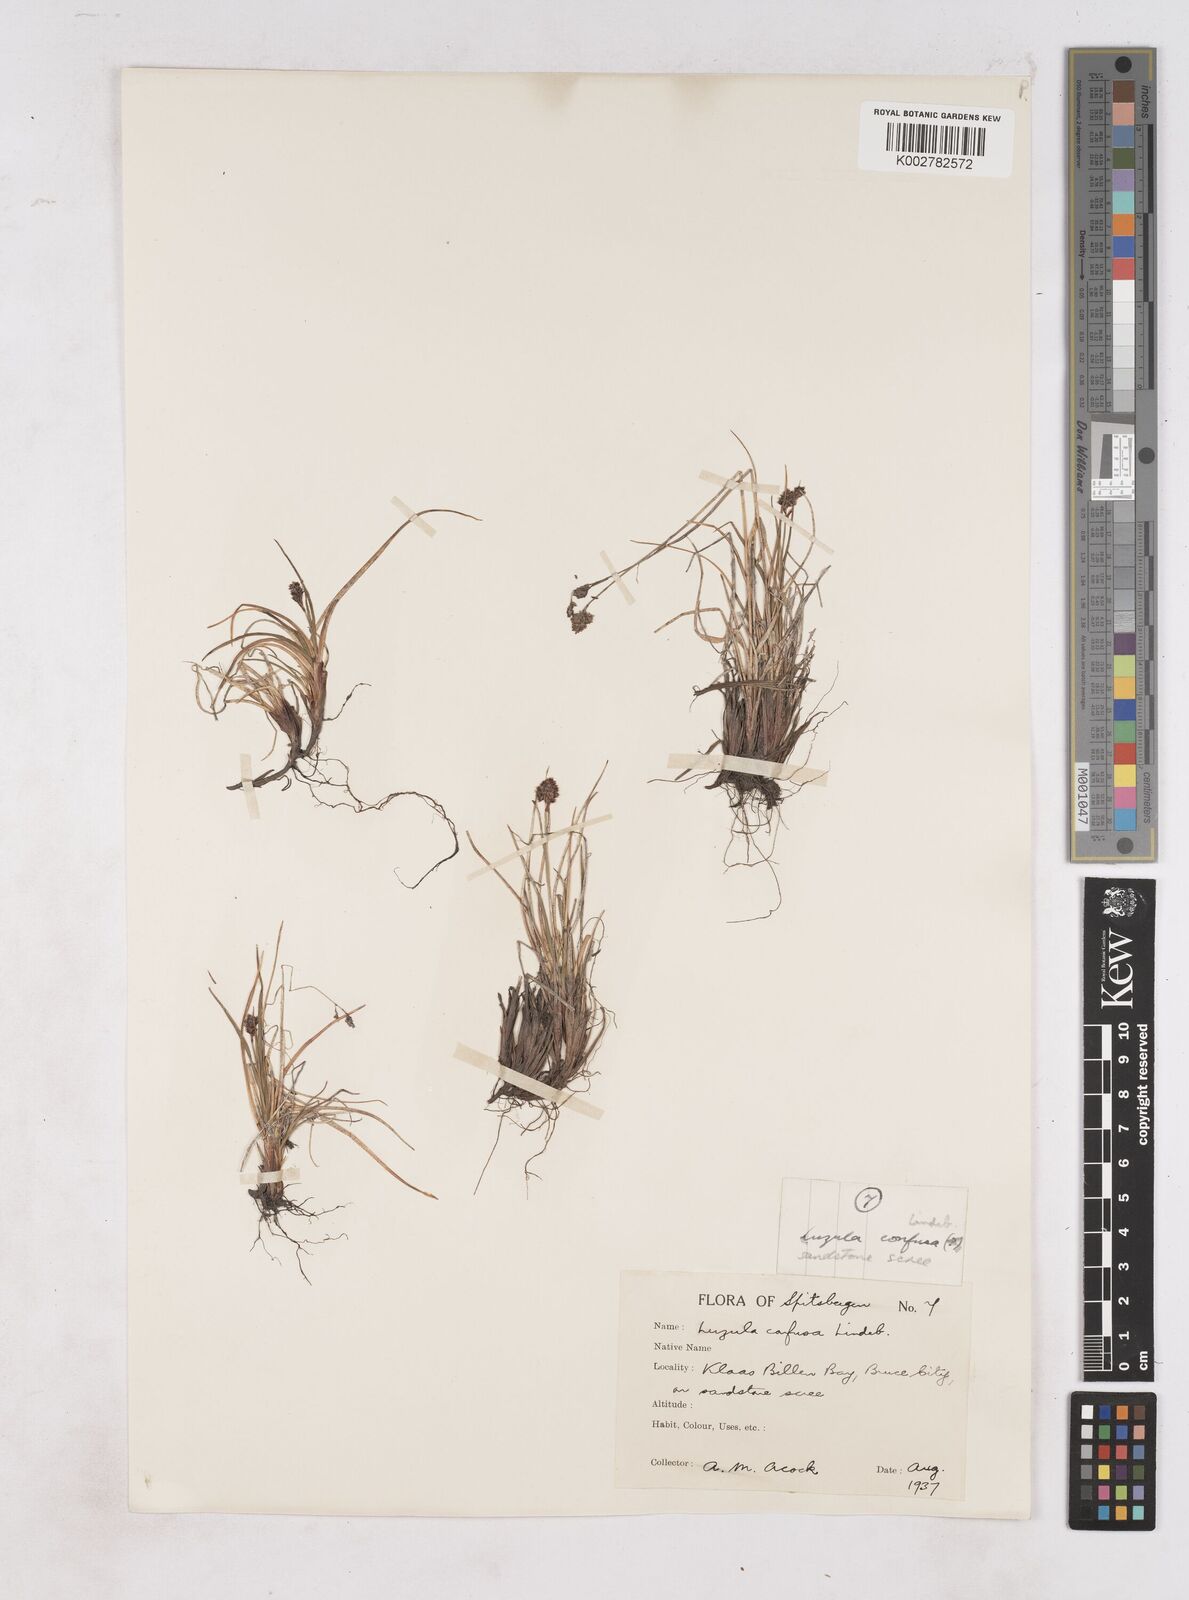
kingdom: Plantae
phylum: Tracheophyta
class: Liliopsida
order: Poales
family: Juncaceae
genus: Luzula
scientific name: Luzula confusa
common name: Northern wood rush
